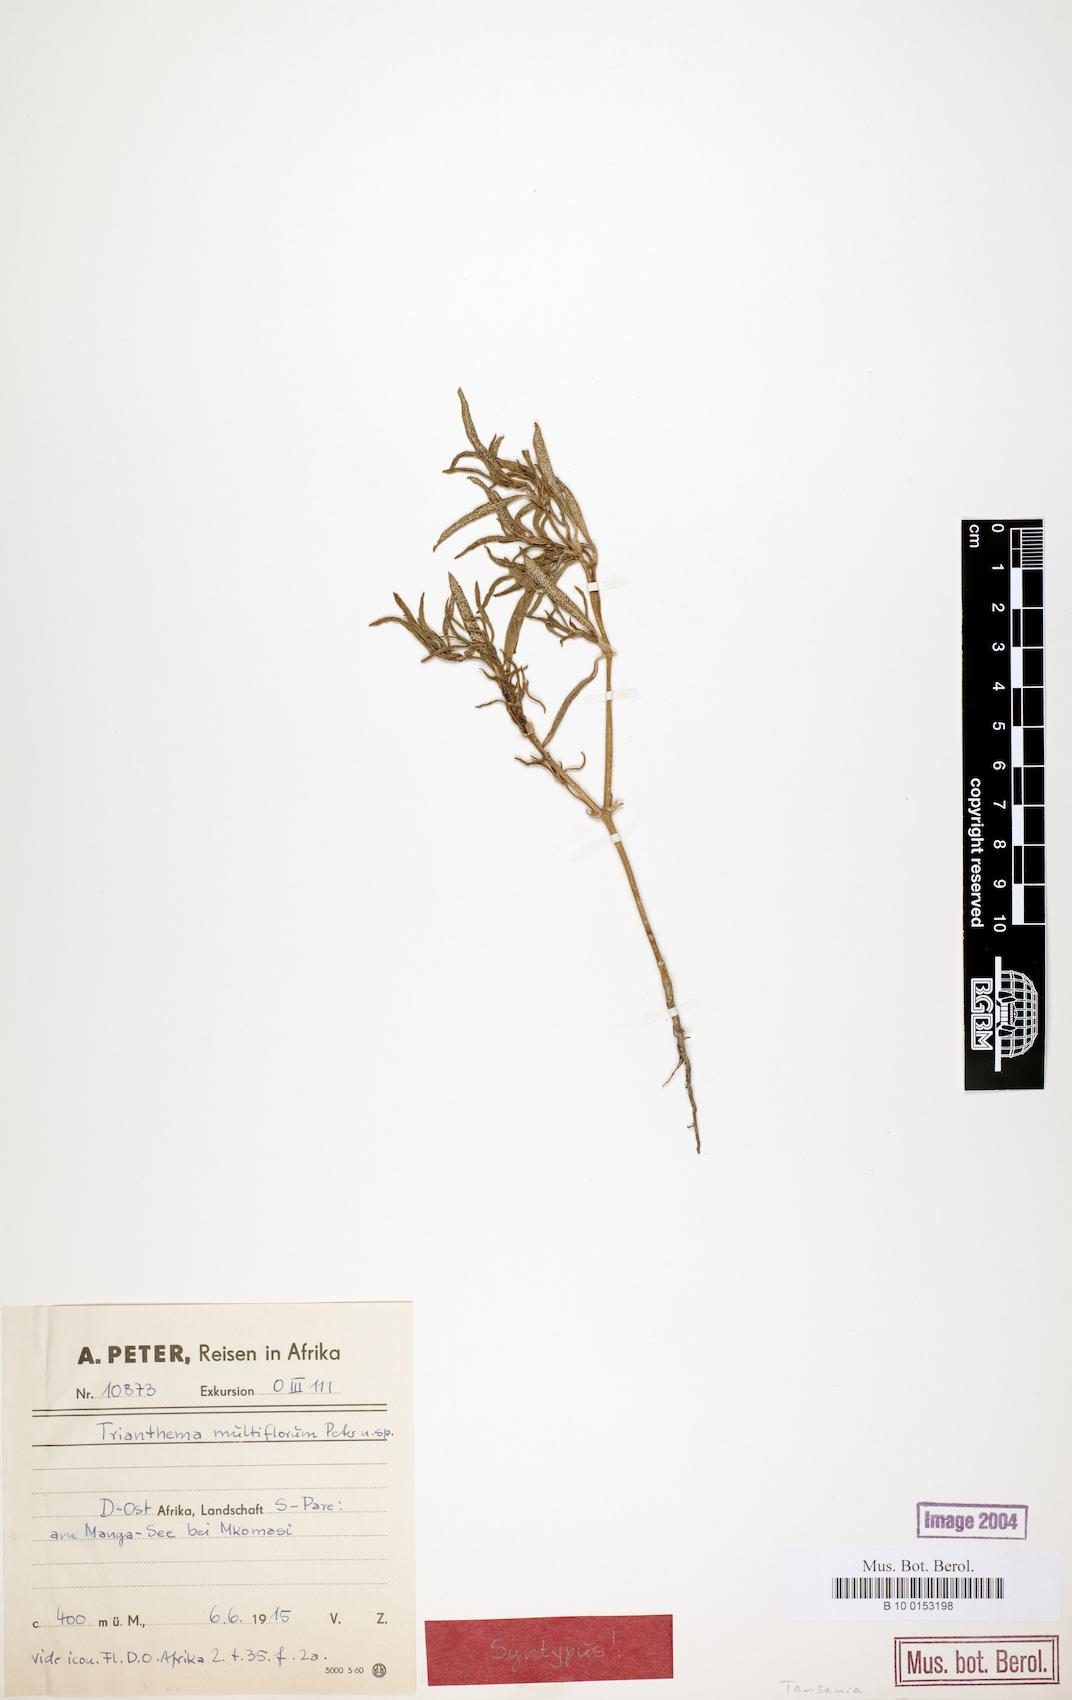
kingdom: Plantae
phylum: Tracheophyta
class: Magnoliopsida
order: Caryophyllales
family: Aizoaceae
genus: Trianthema
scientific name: Trianthema salsoloides
